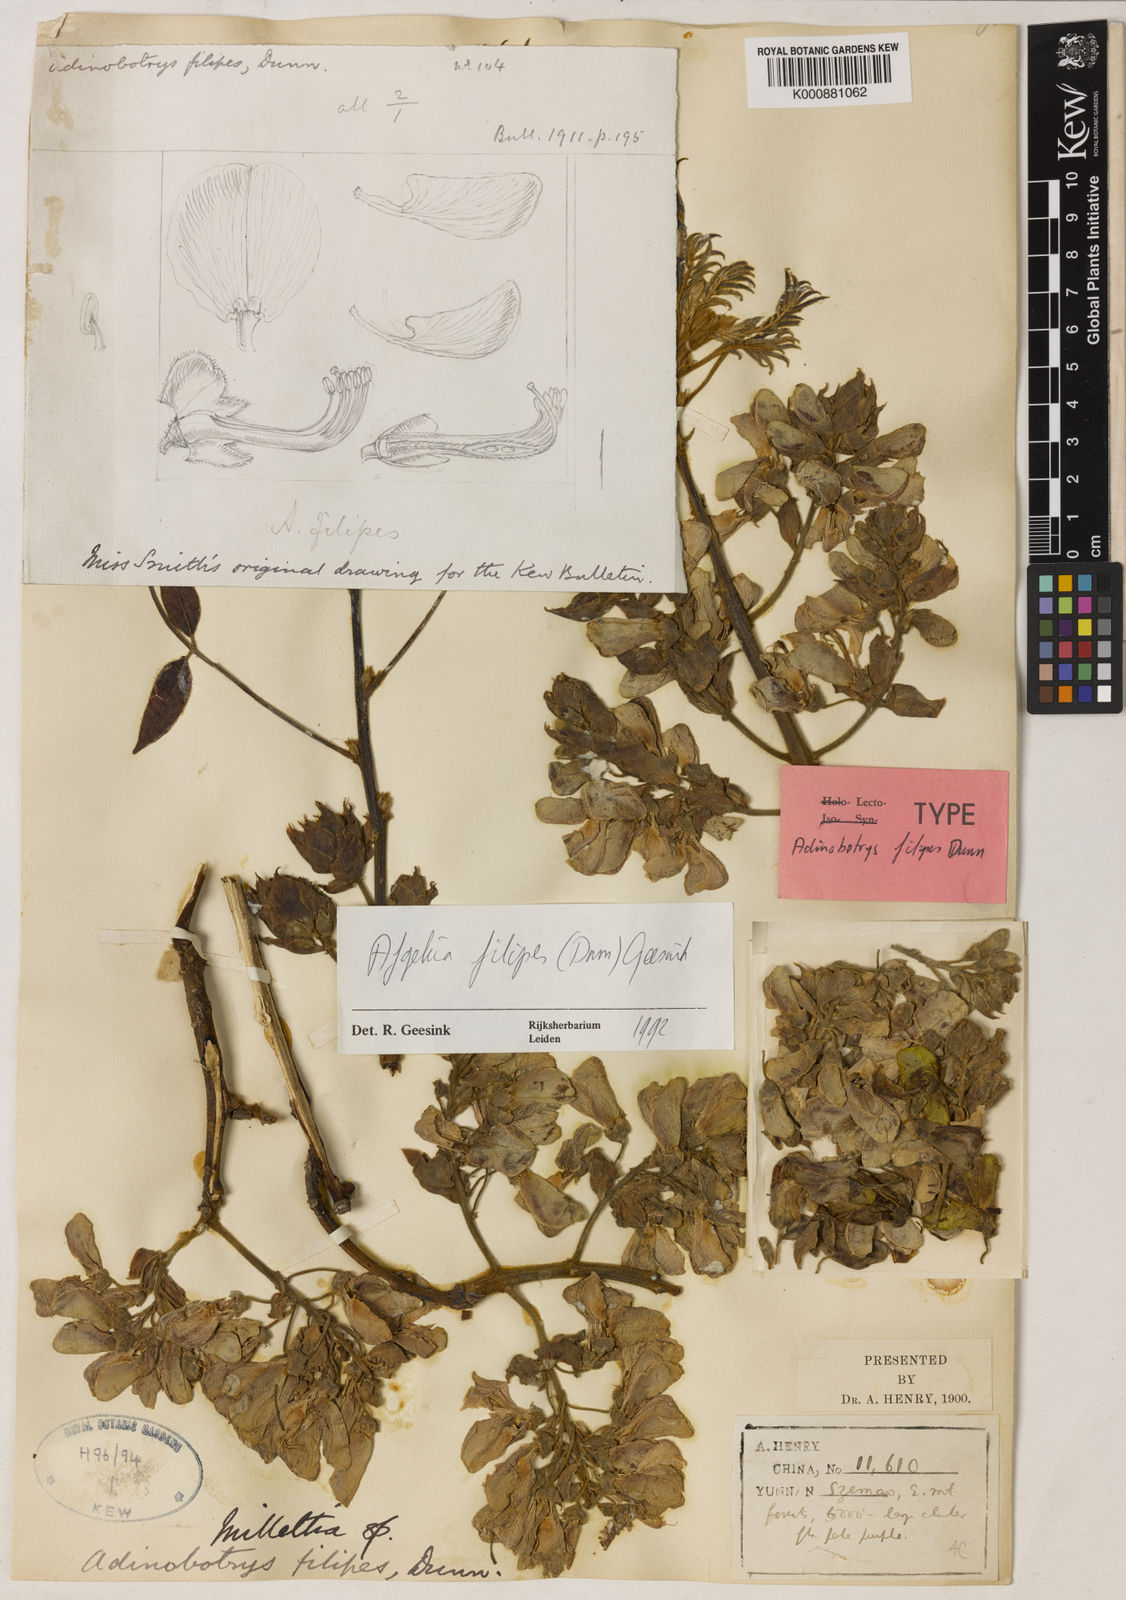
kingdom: Plantae
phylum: Tracheophyta
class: Magnoliopsida
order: Fabales
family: Fabaceae
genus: Padbruggea
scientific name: Padbruggea filipes
